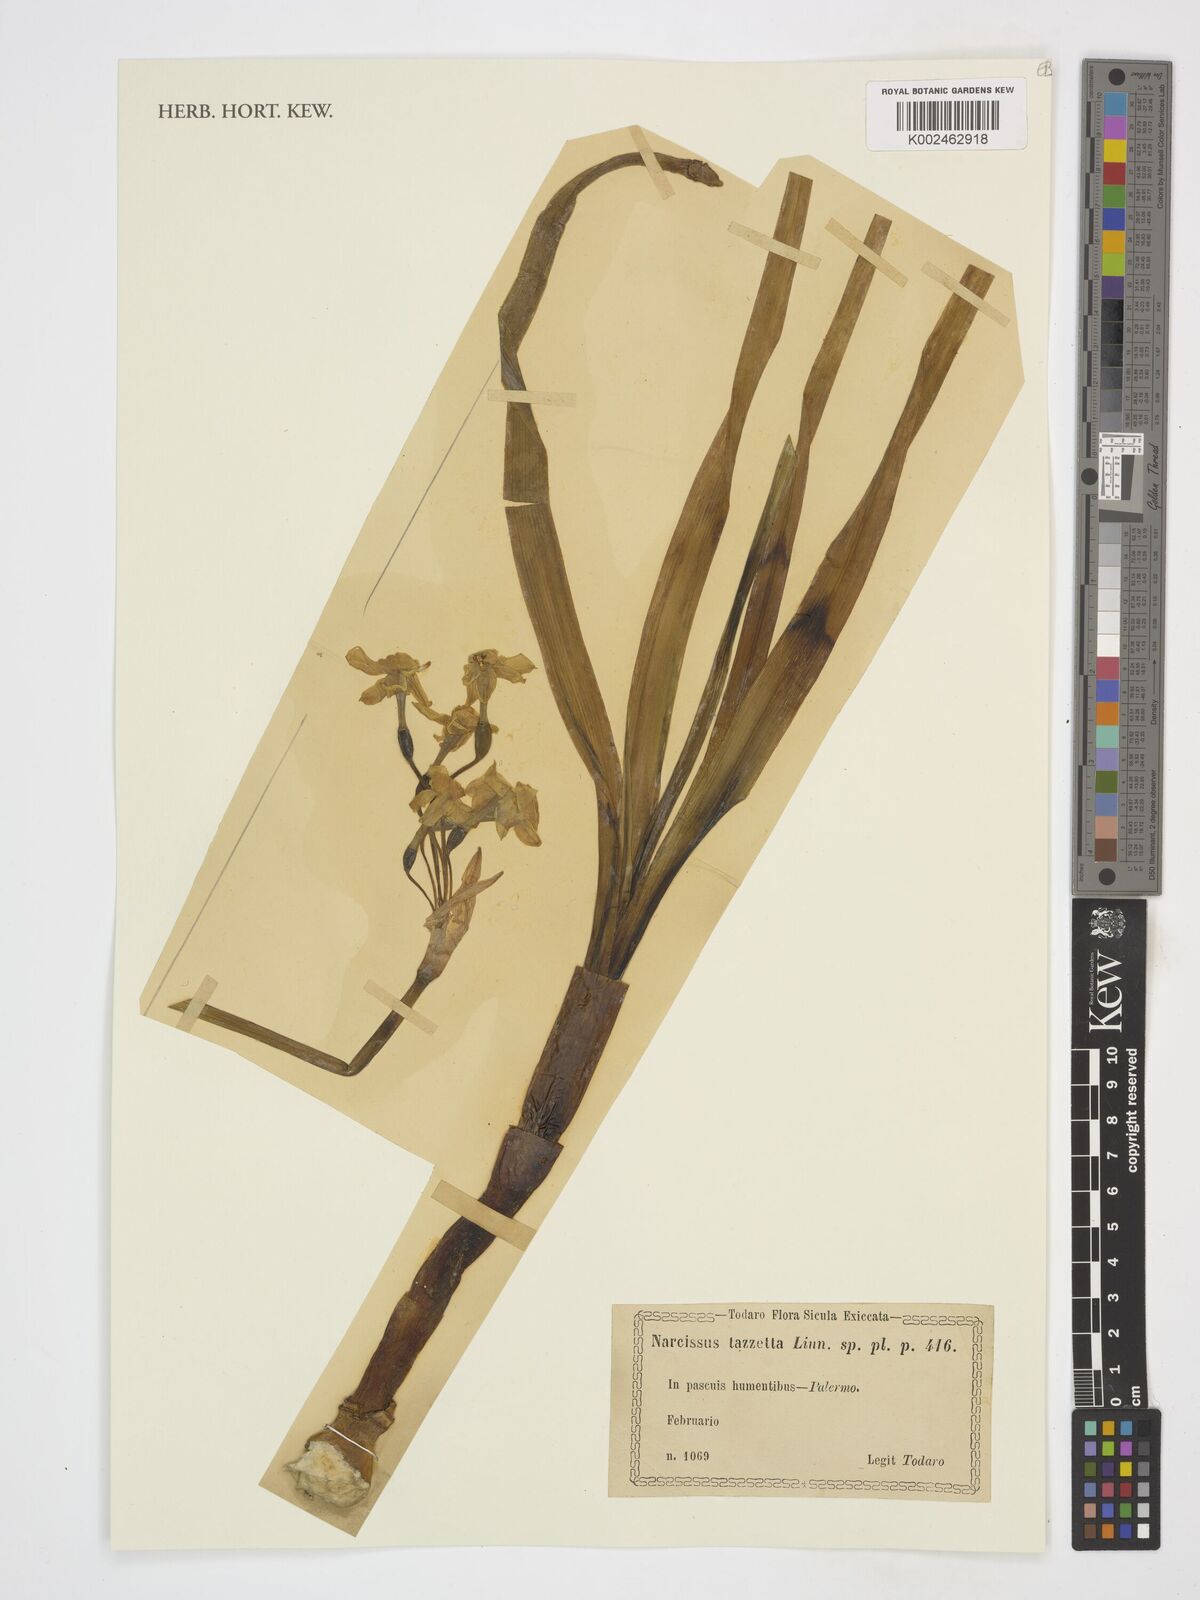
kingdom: Plantae
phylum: Tracheophyta
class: Liliopsida
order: Asparagales
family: Amaryllidaceae
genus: Narcissus
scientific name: Narcissus
